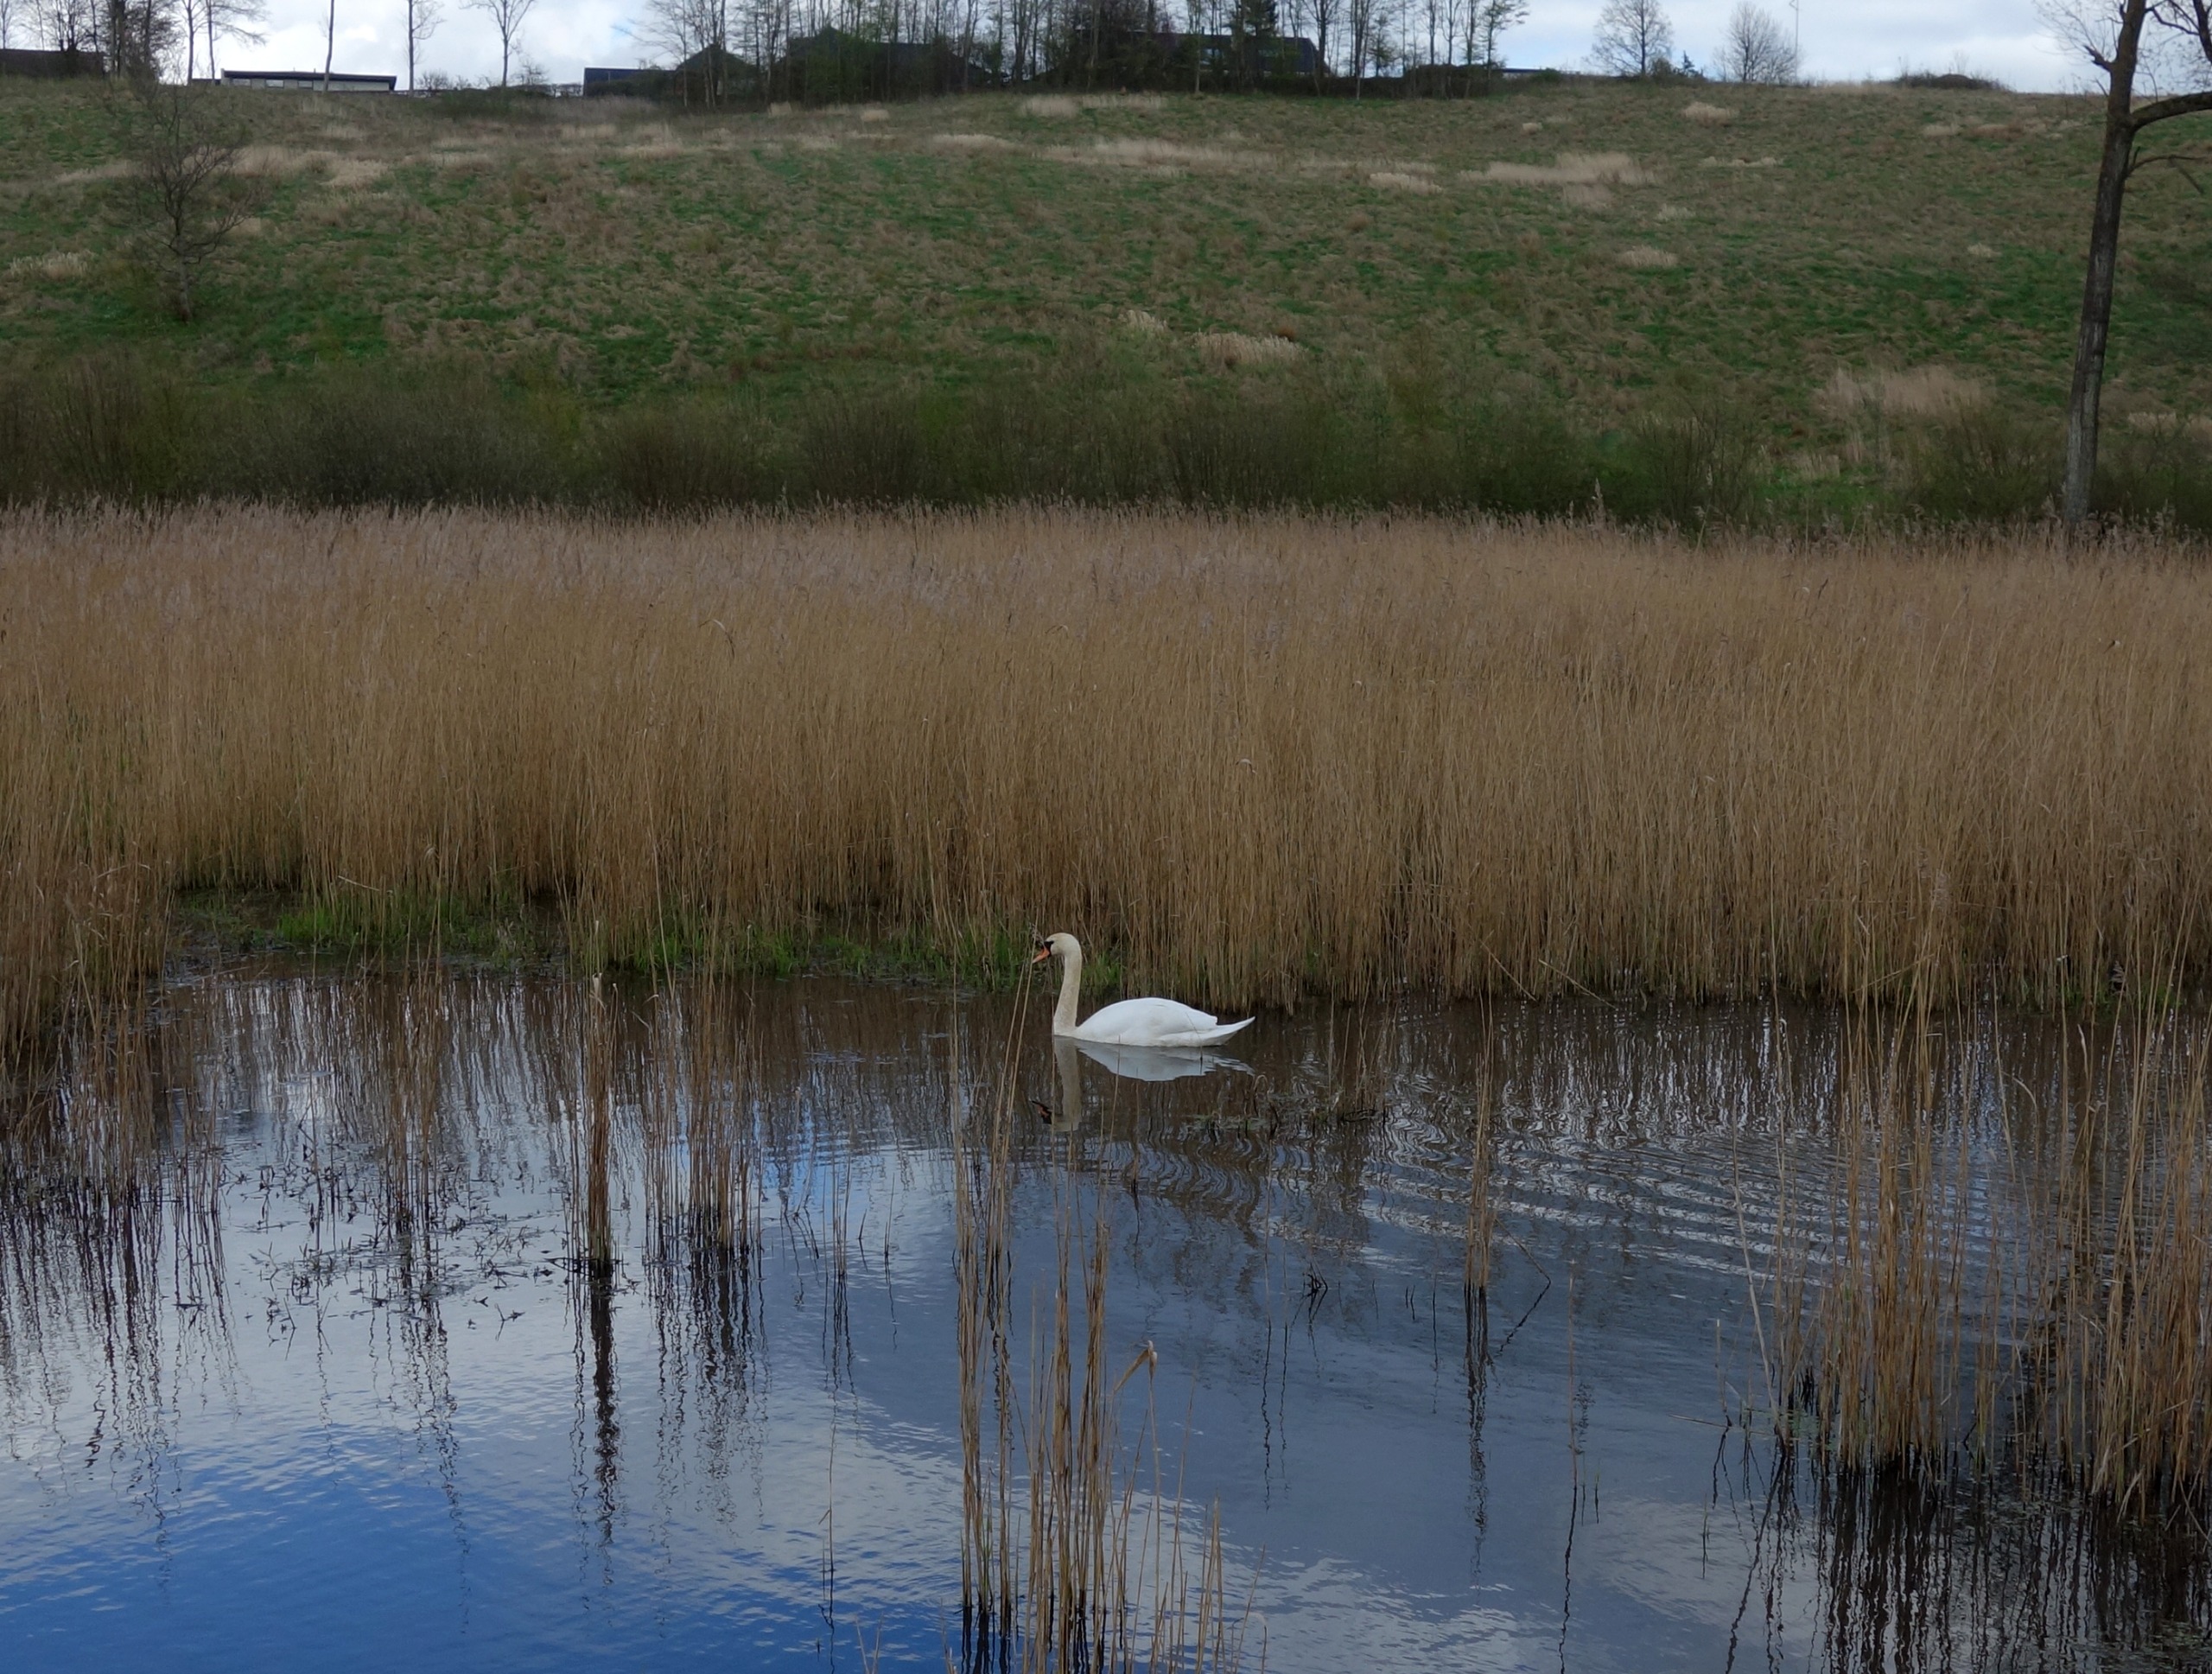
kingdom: Animalia
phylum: Chordata
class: Aves
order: Anseriformes
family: Anatidae
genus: Cygnus
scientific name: Cygnus olor
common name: Knopsvane
